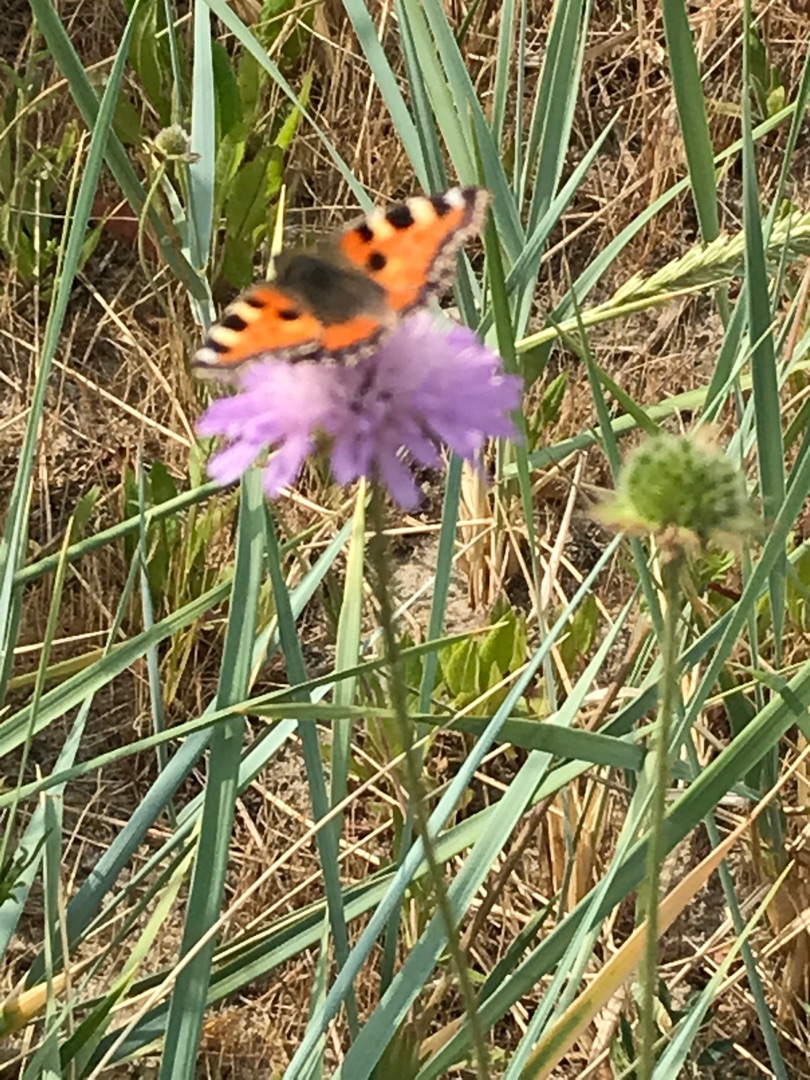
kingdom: Animalia
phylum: Arthropoda
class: Insecta
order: Lepidoptera
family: Nymphalidae
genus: Aglais
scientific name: Aglais urticae
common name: Nældens takvinge
